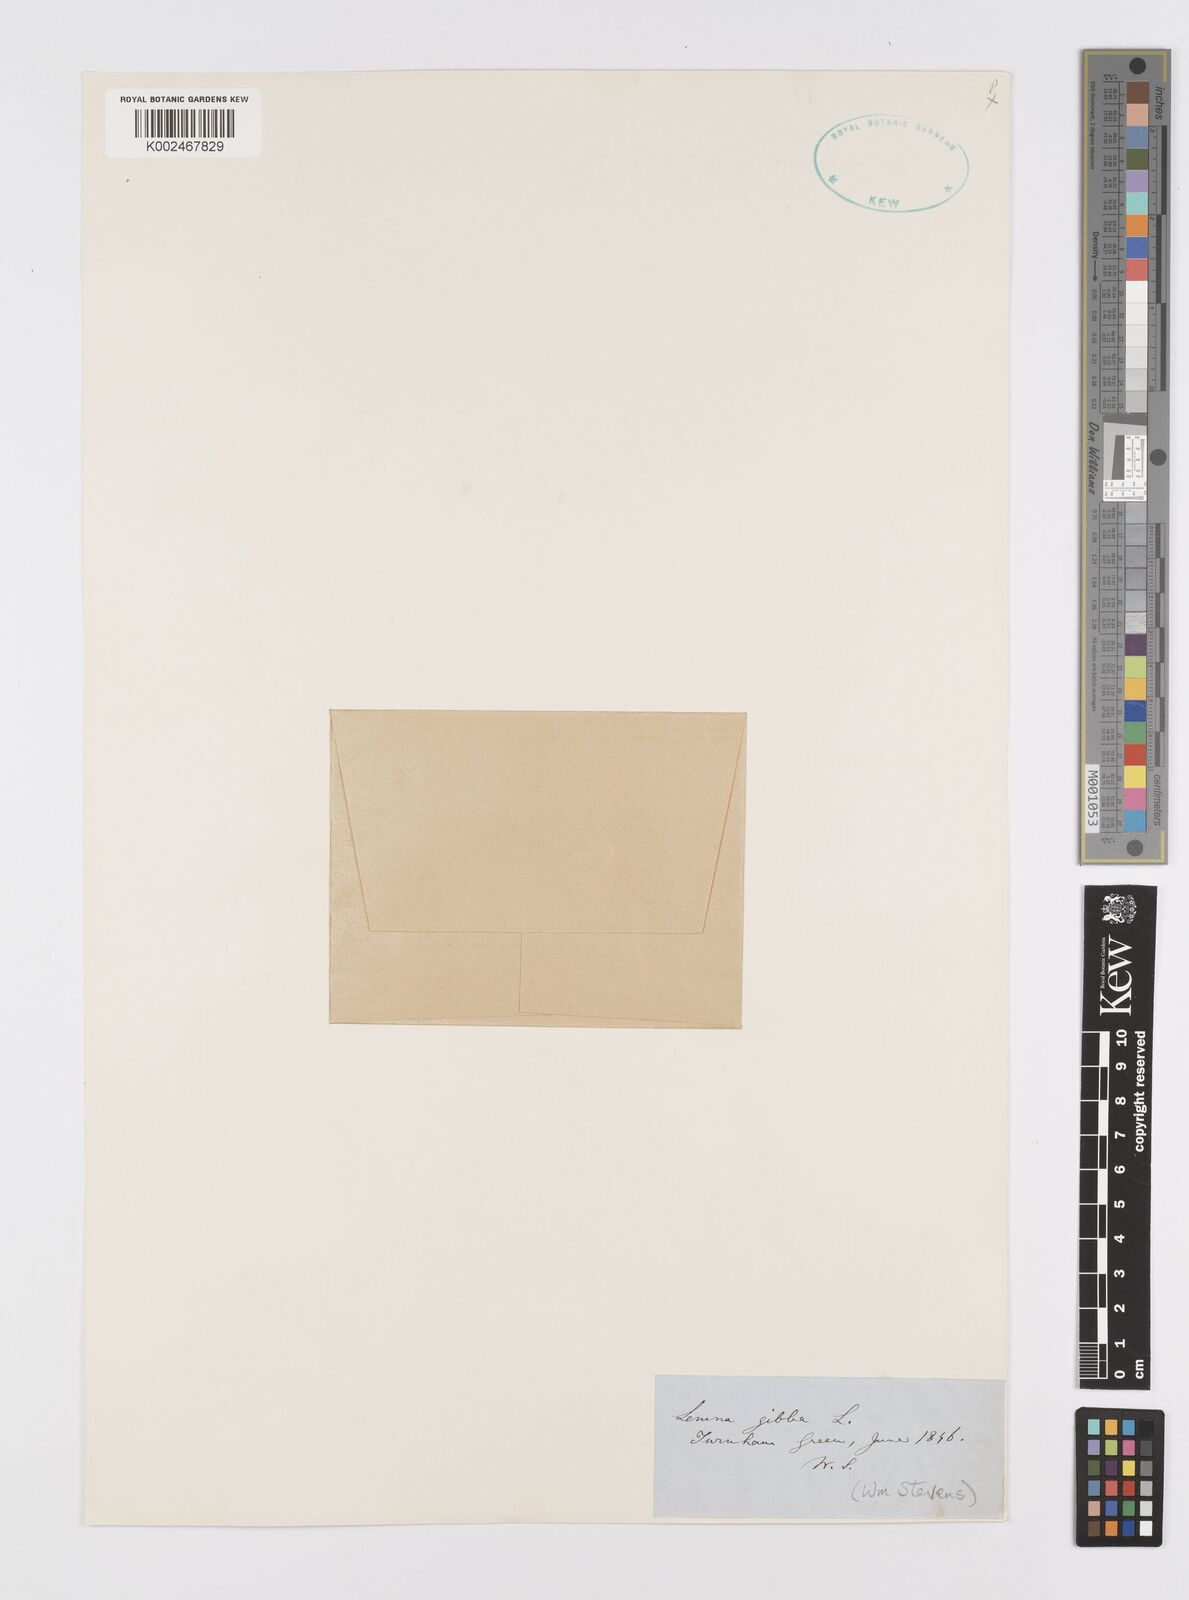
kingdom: Plantae
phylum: Tracheophyta
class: Liliopsida
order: Alismatales
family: Araceae
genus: Lemna
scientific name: Lemna gibba
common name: Fat duckweed
